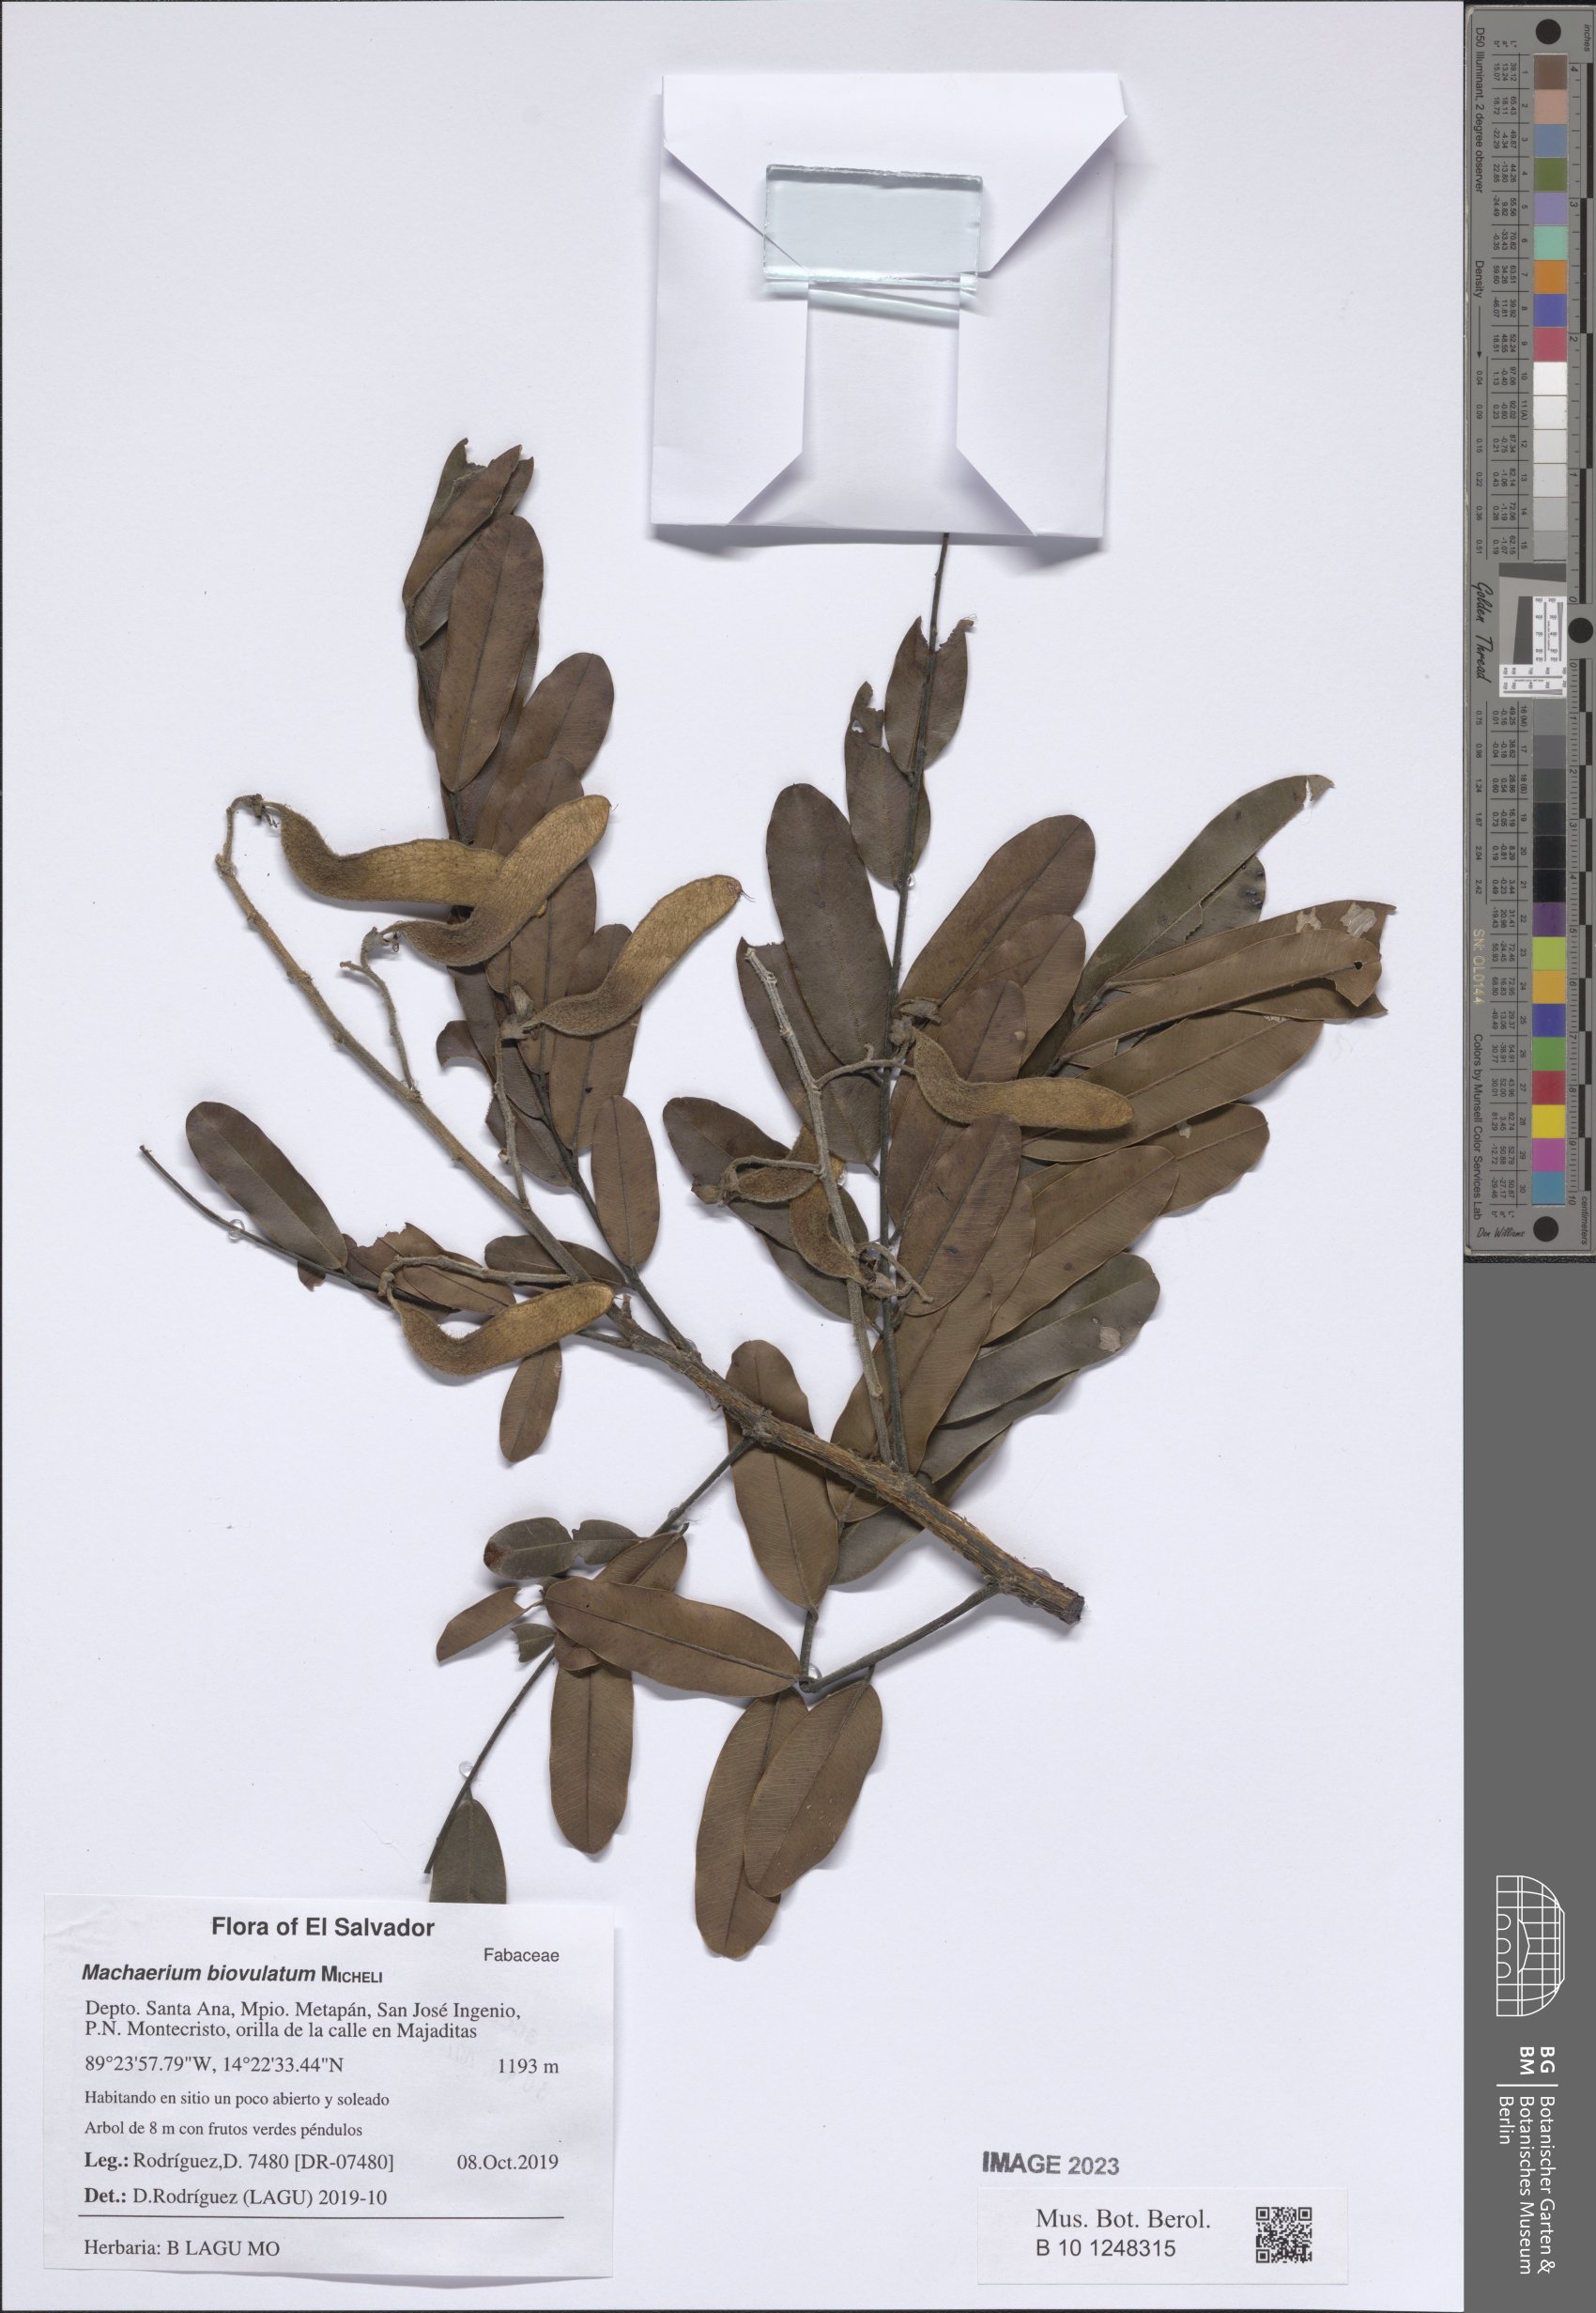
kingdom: Plantae
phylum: Tracheophyta
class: Magnoliopsida
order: Fabales
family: Fabaceae
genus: Machaerium
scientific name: Machaerium biovulatum
